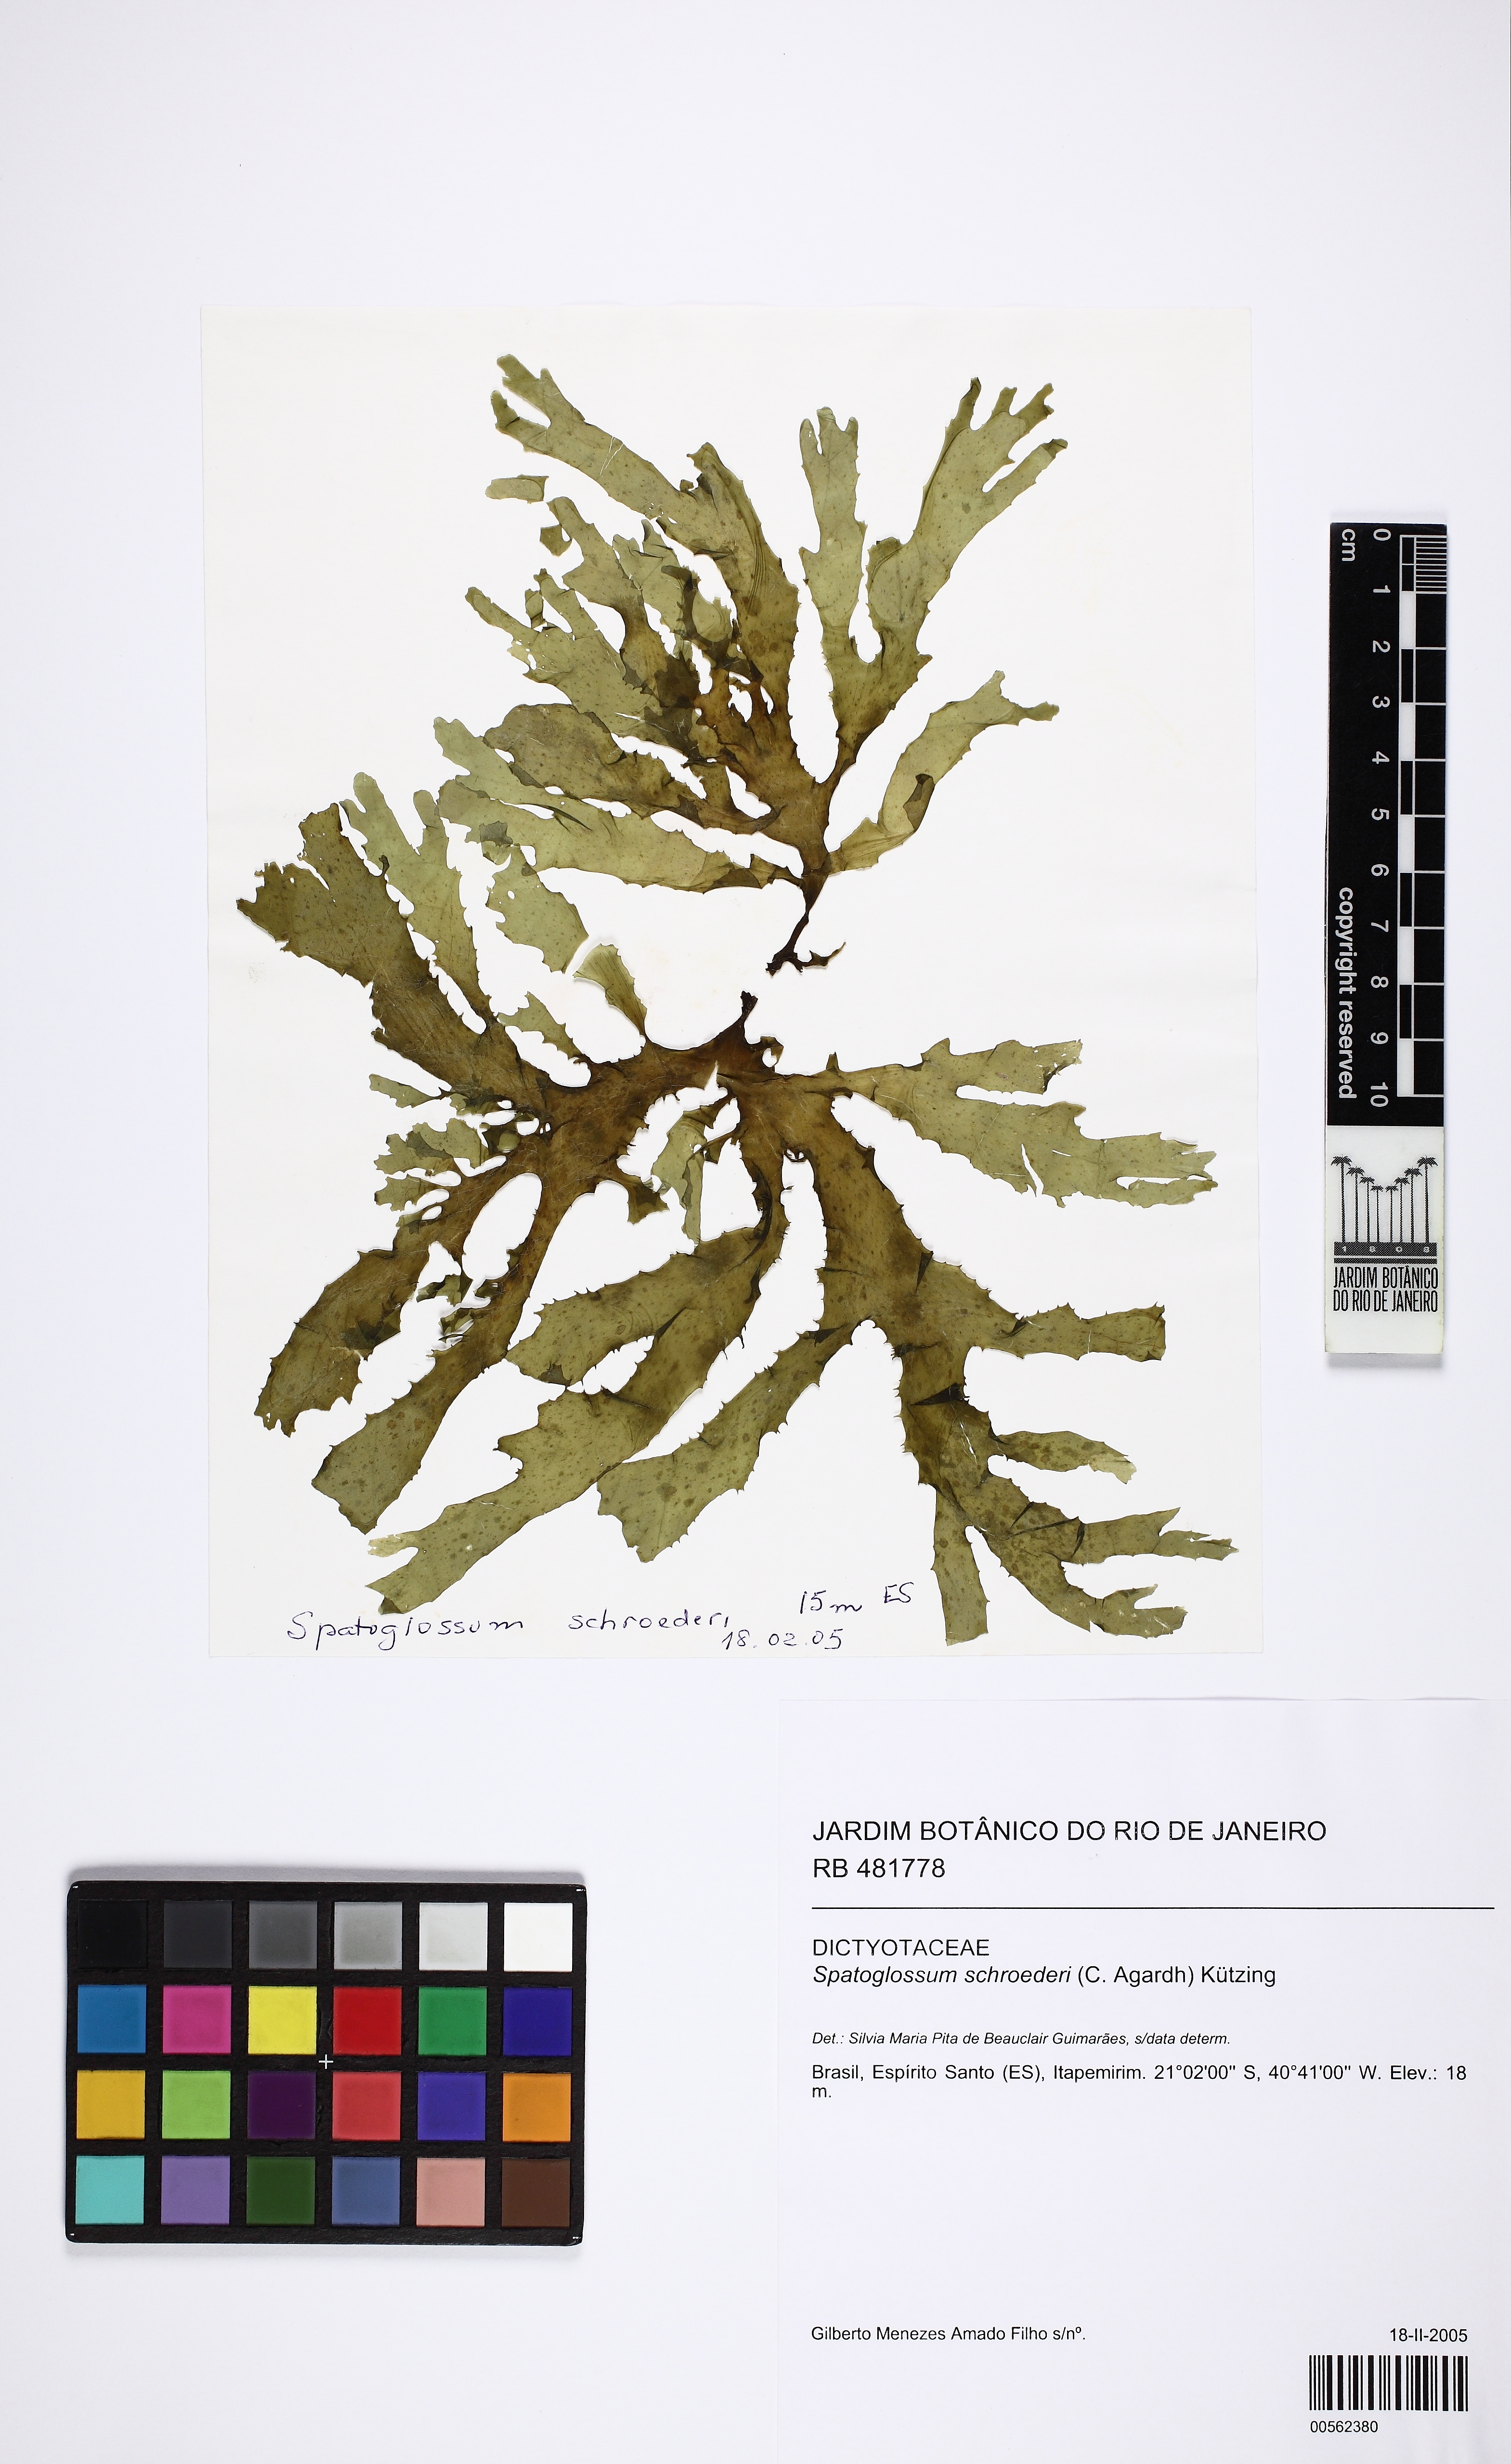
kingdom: Chromista
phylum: Ochrophyta
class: Phaeophyceae
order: Dictyotales
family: Dictyotaceae
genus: Spatoglossum
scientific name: Spatoglossum schroederi
